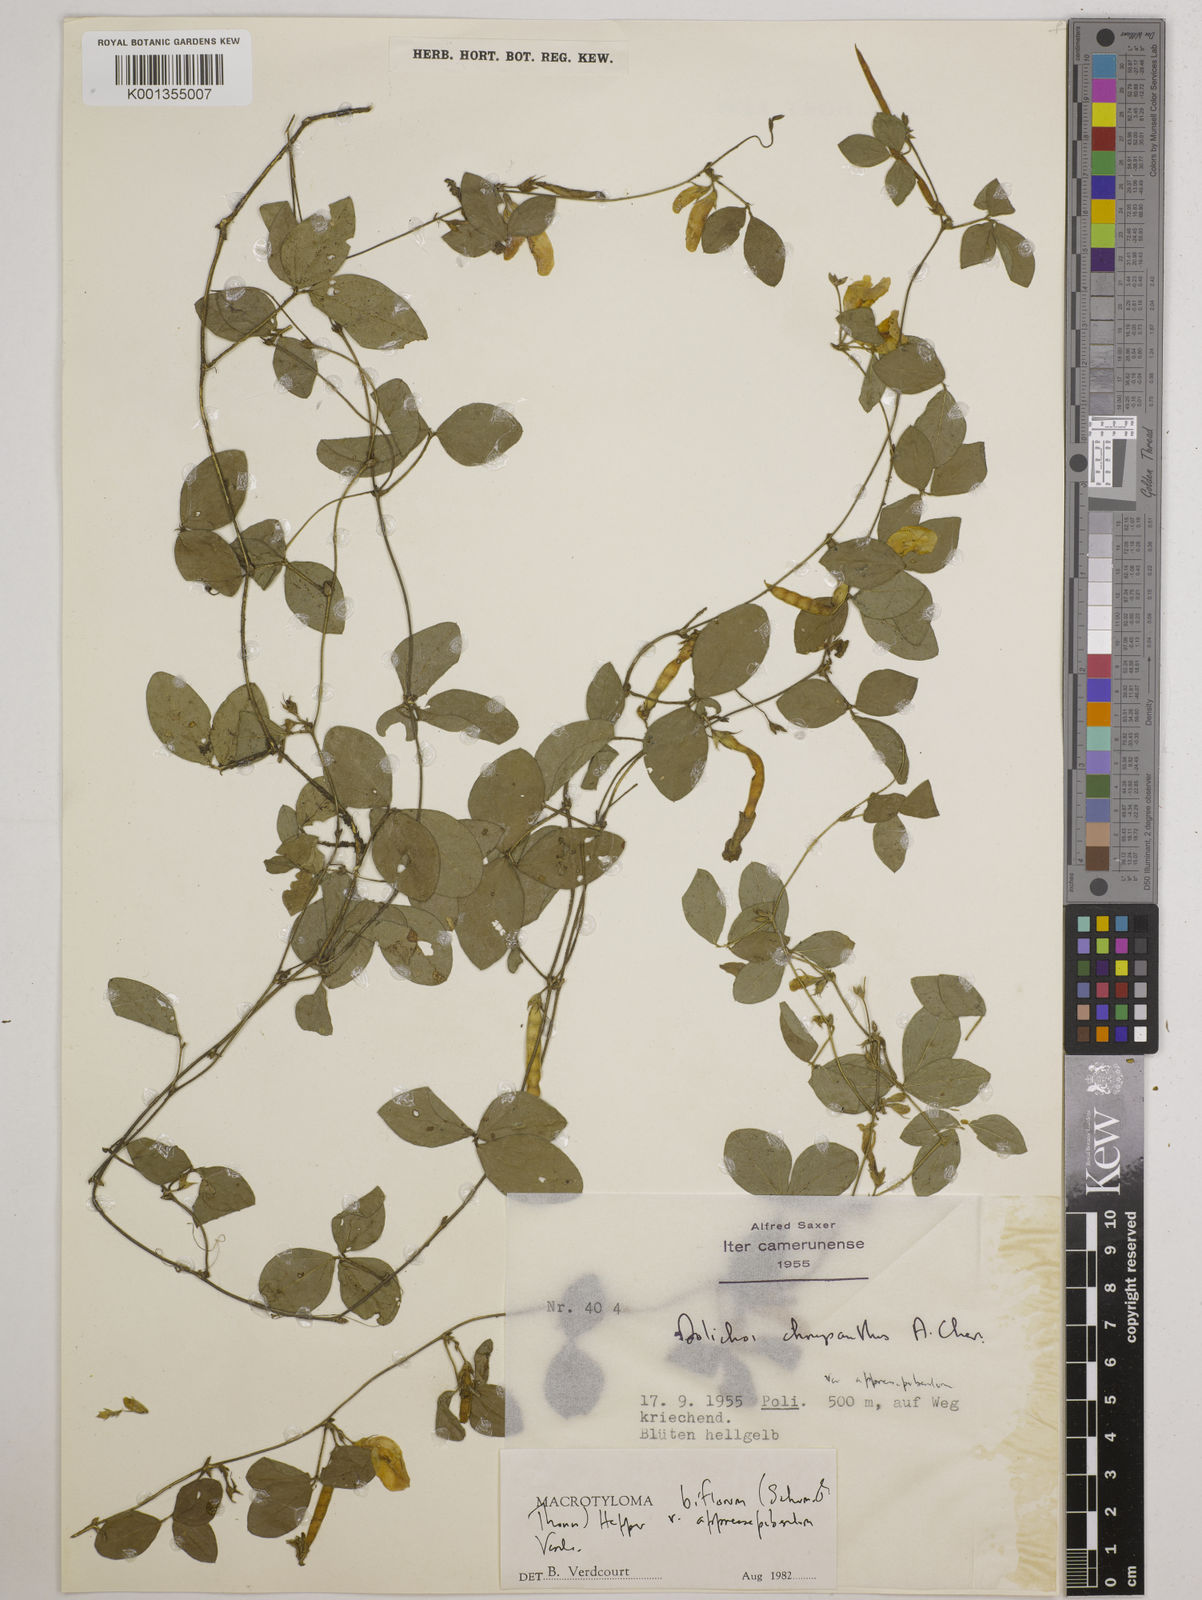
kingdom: Plantae
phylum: Tracheophyta
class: Magnoliopsida
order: Fabales
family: Fabaceae
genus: Macrotyloma
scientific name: Macrotyloma biflorum
